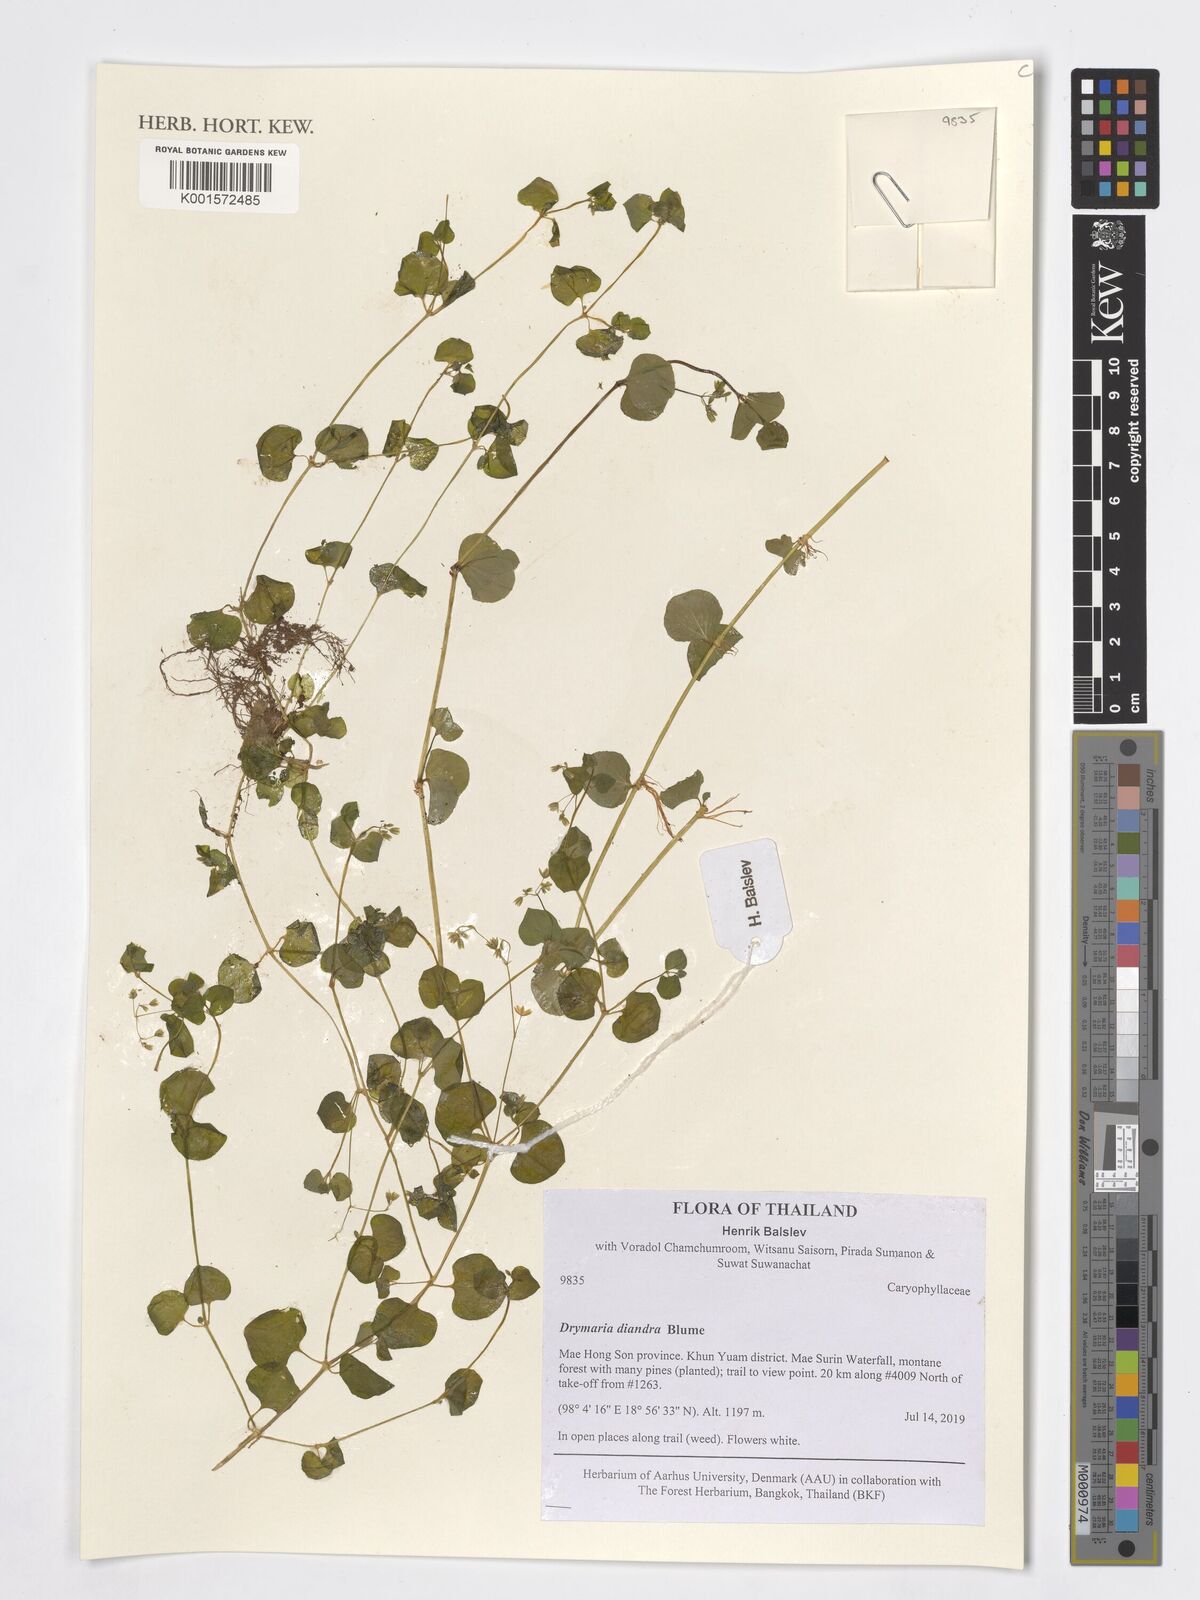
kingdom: Plantae
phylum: Tracheophyta
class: Magnoliopsida
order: Caryophyllales
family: Caryophyllaceae
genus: Drymaria
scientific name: Drymaria diandra
